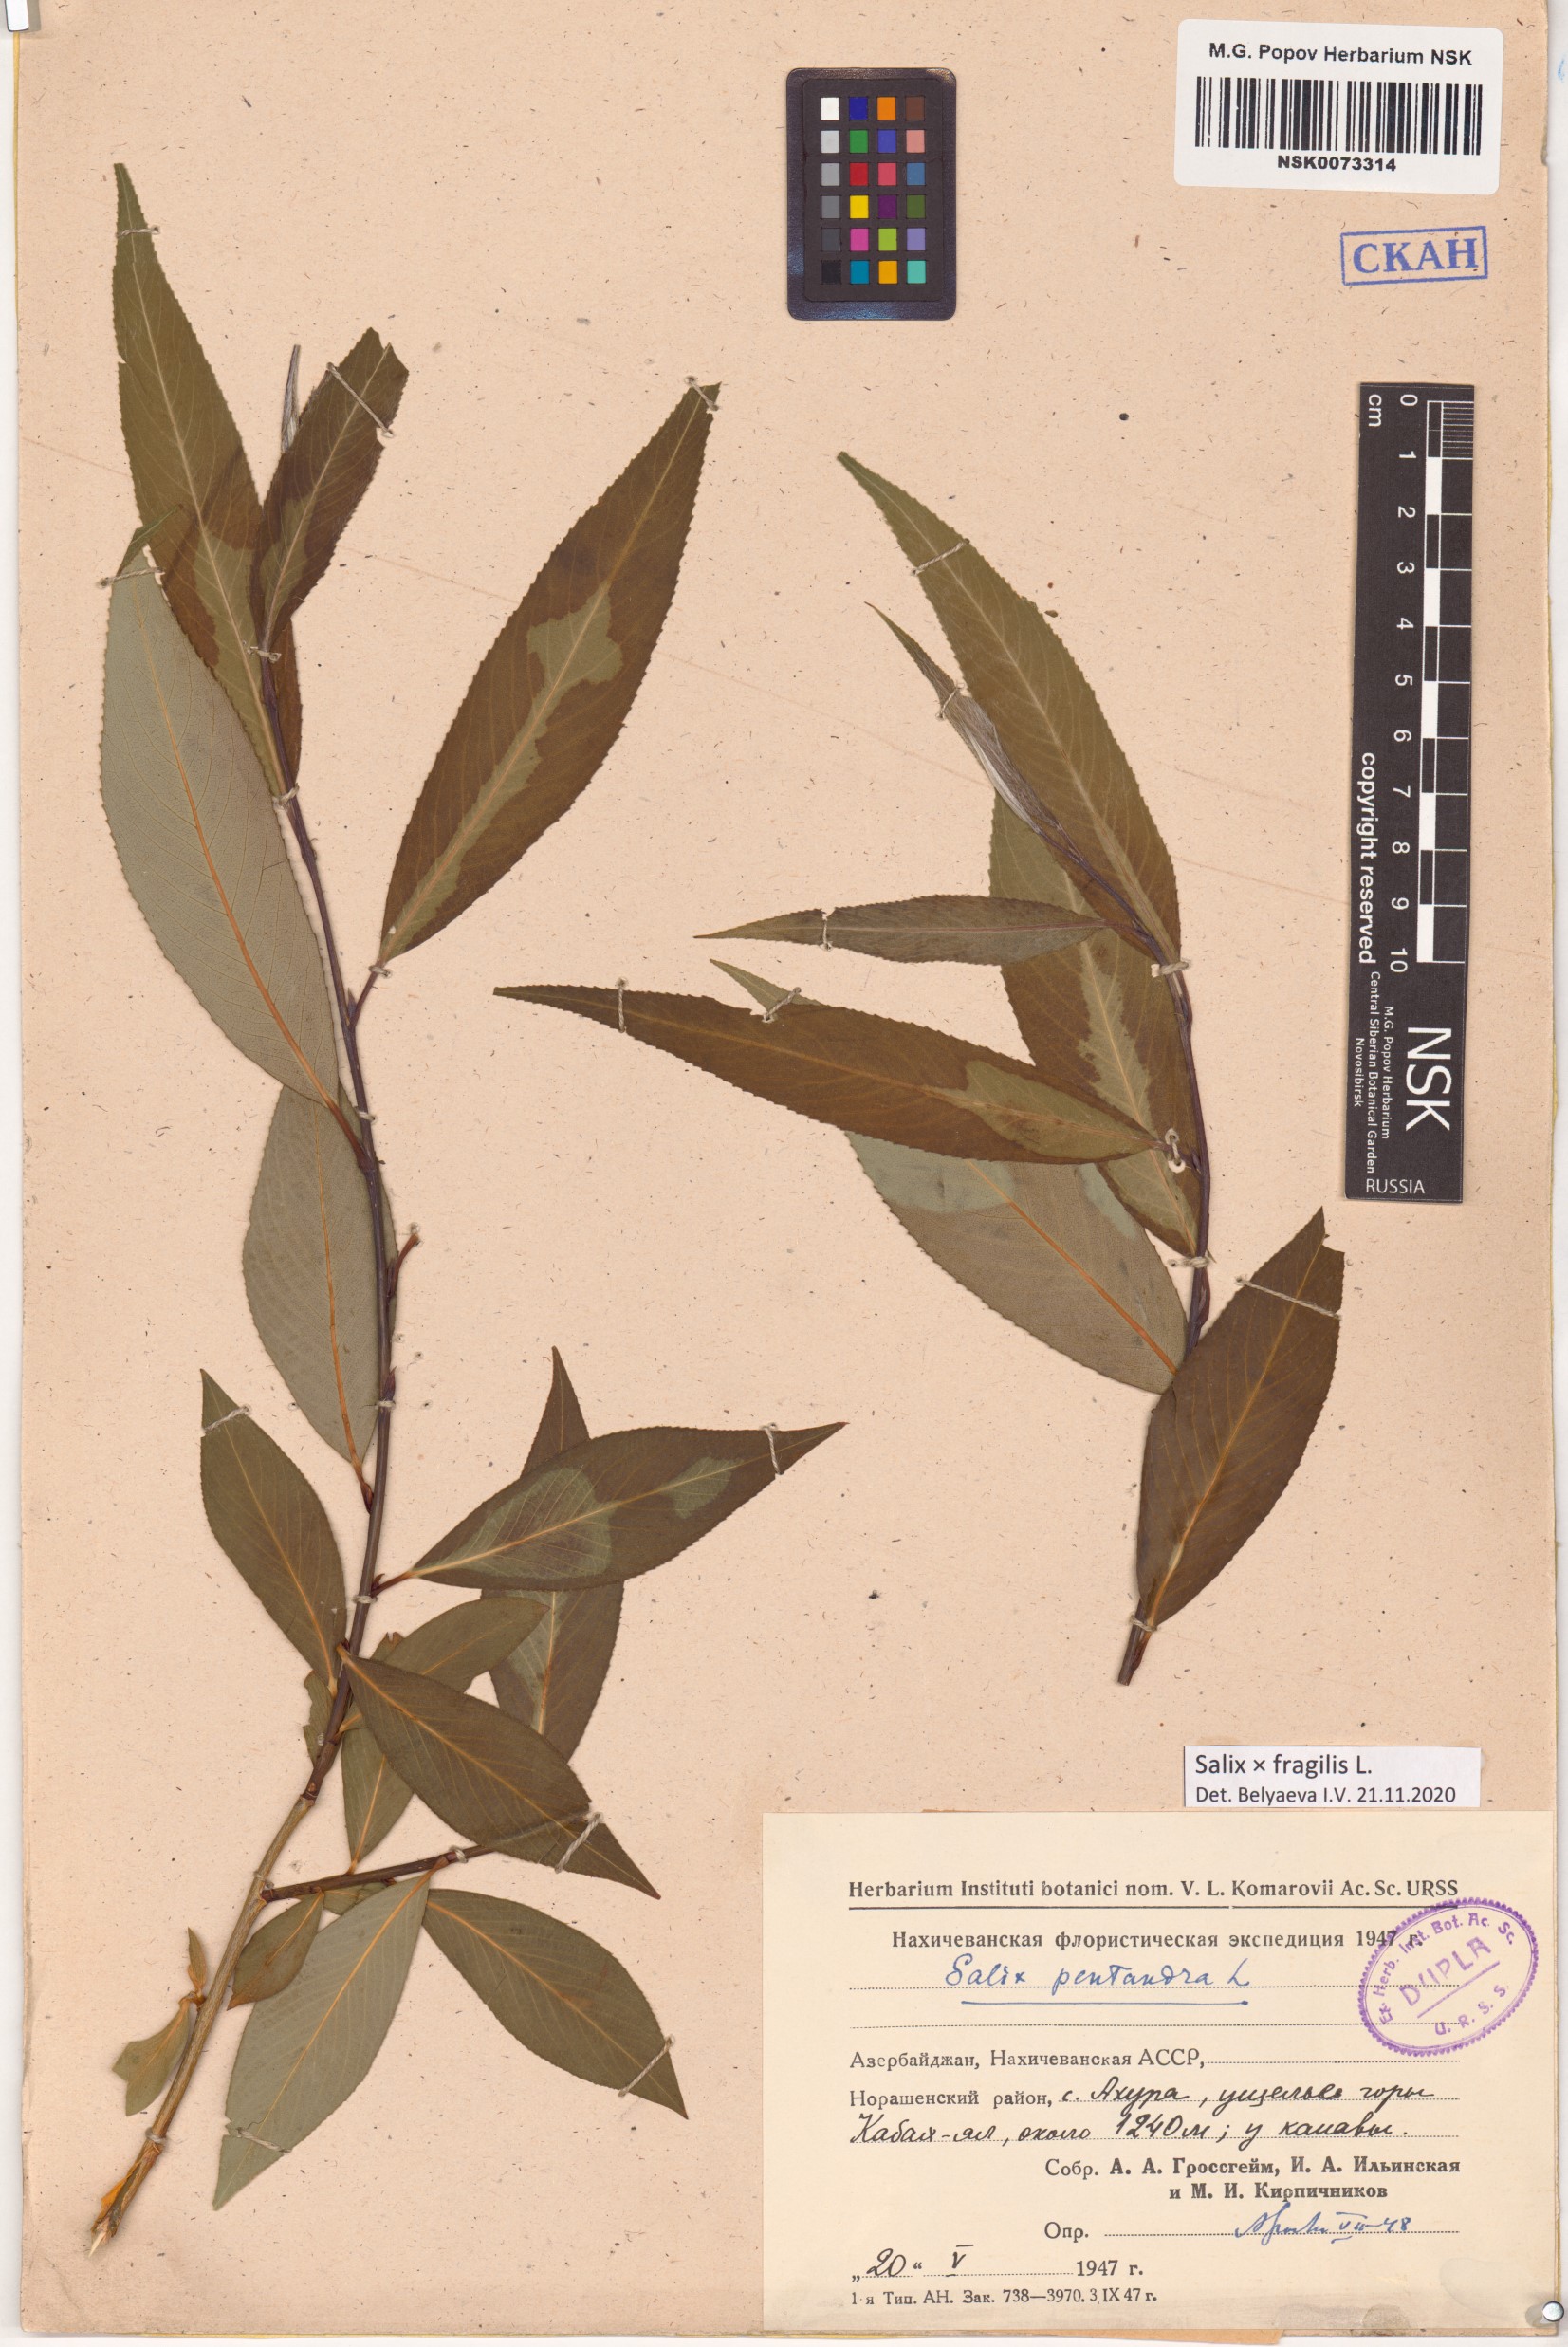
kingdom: Plantae
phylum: Tracheophyta
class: Magnoliopsida
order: Malpighiales
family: Salicaceae
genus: Salix
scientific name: Salix fragilis
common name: Crack willow
